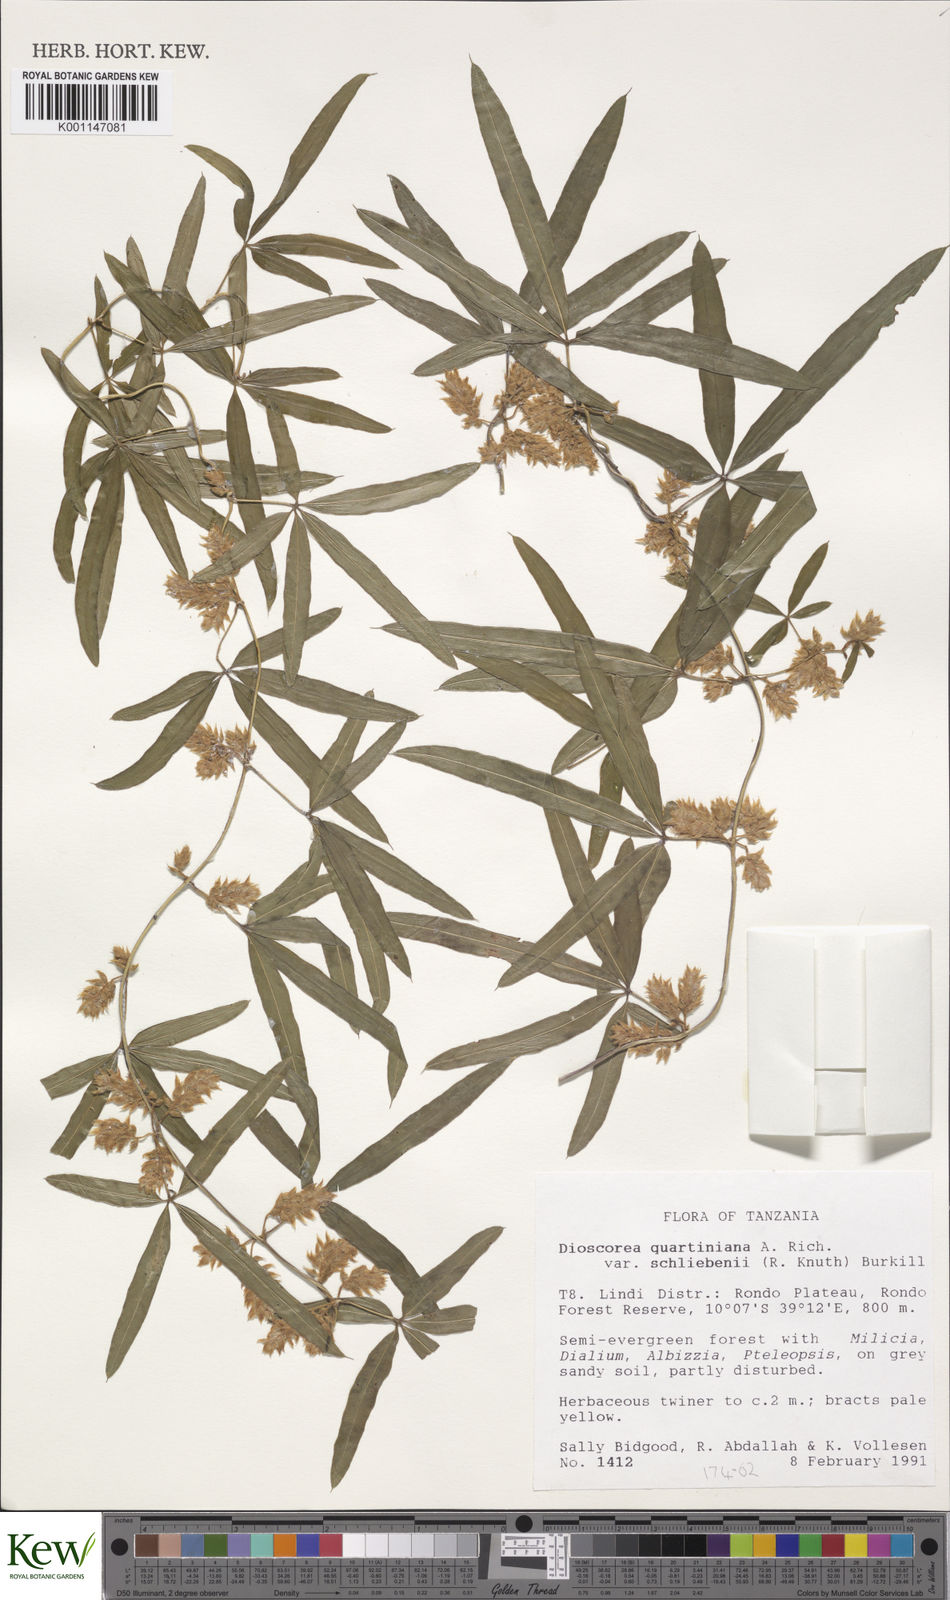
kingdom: Plantae
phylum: Tracheophyta
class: Liliopsida
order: Dioscoreales
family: Dioscoreaceae
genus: Dioscorea
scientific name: Dioscorea quartiniana
